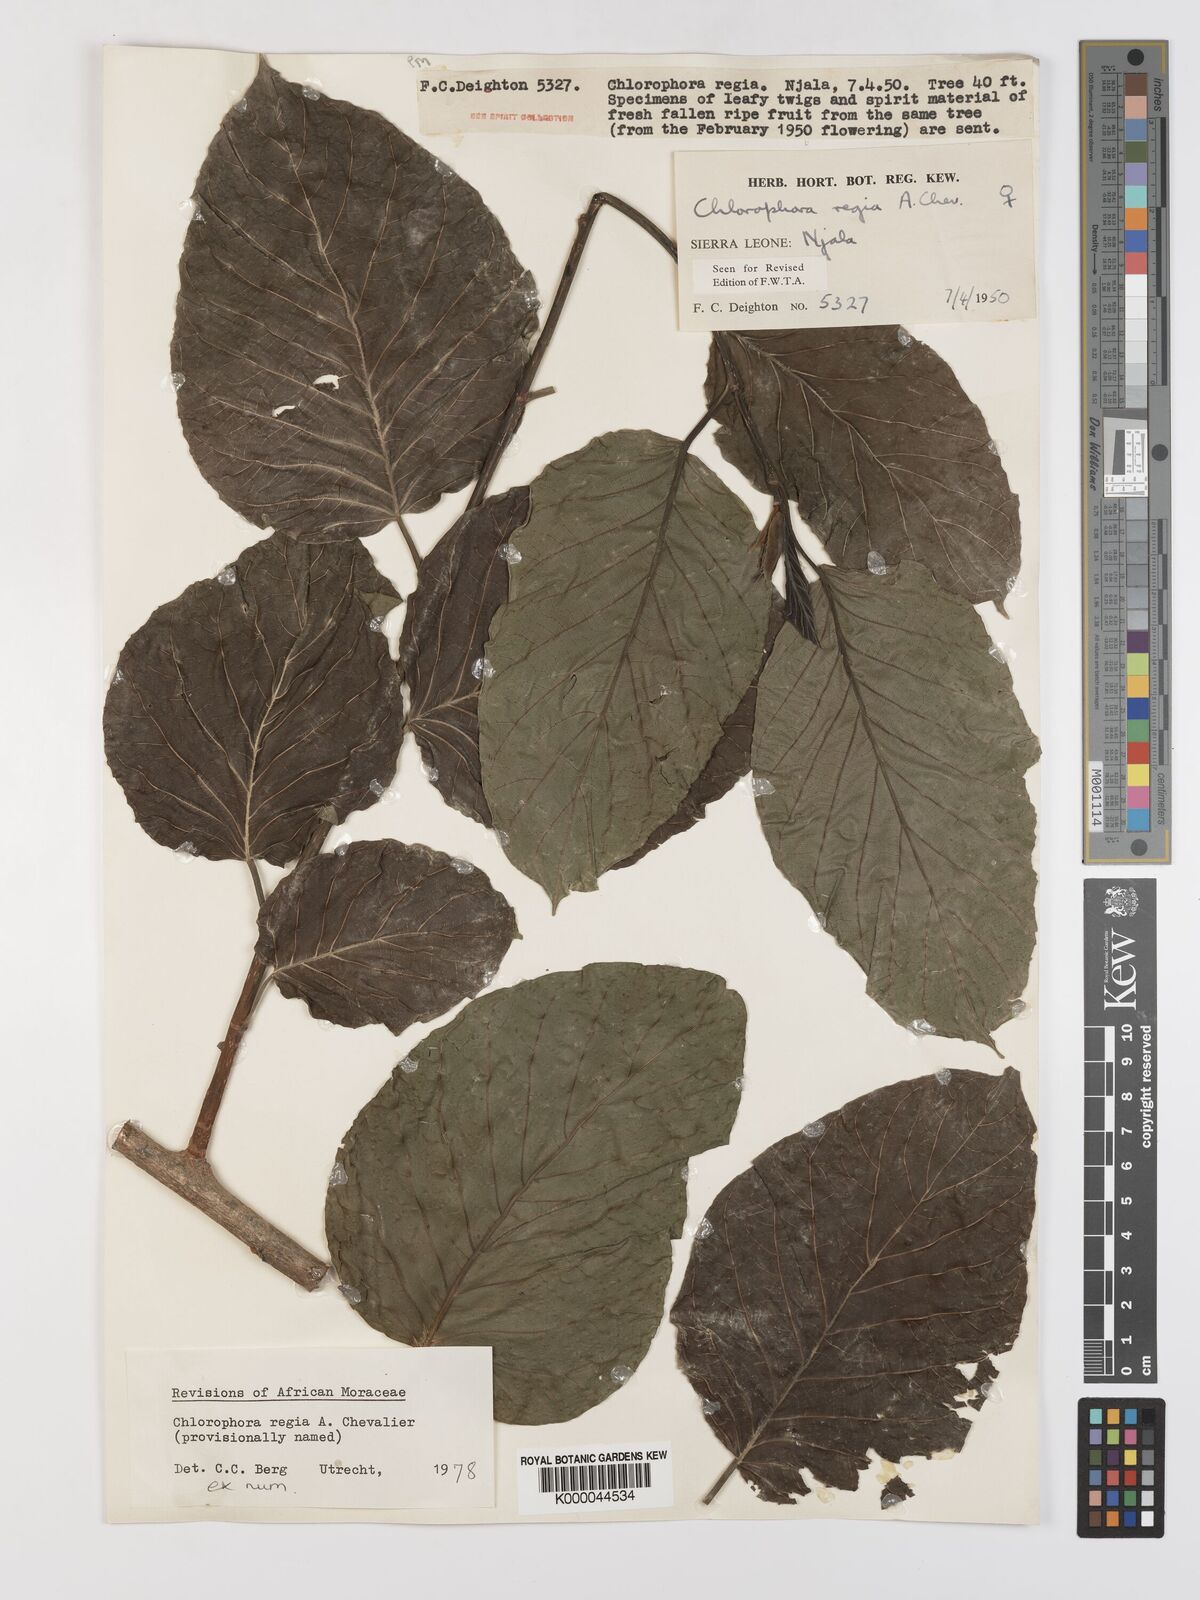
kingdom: Plantae
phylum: Tracheophyta
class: Magnoliopsida
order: Rosales
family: Moraceae
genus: Milicia
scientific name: Milicia regia
